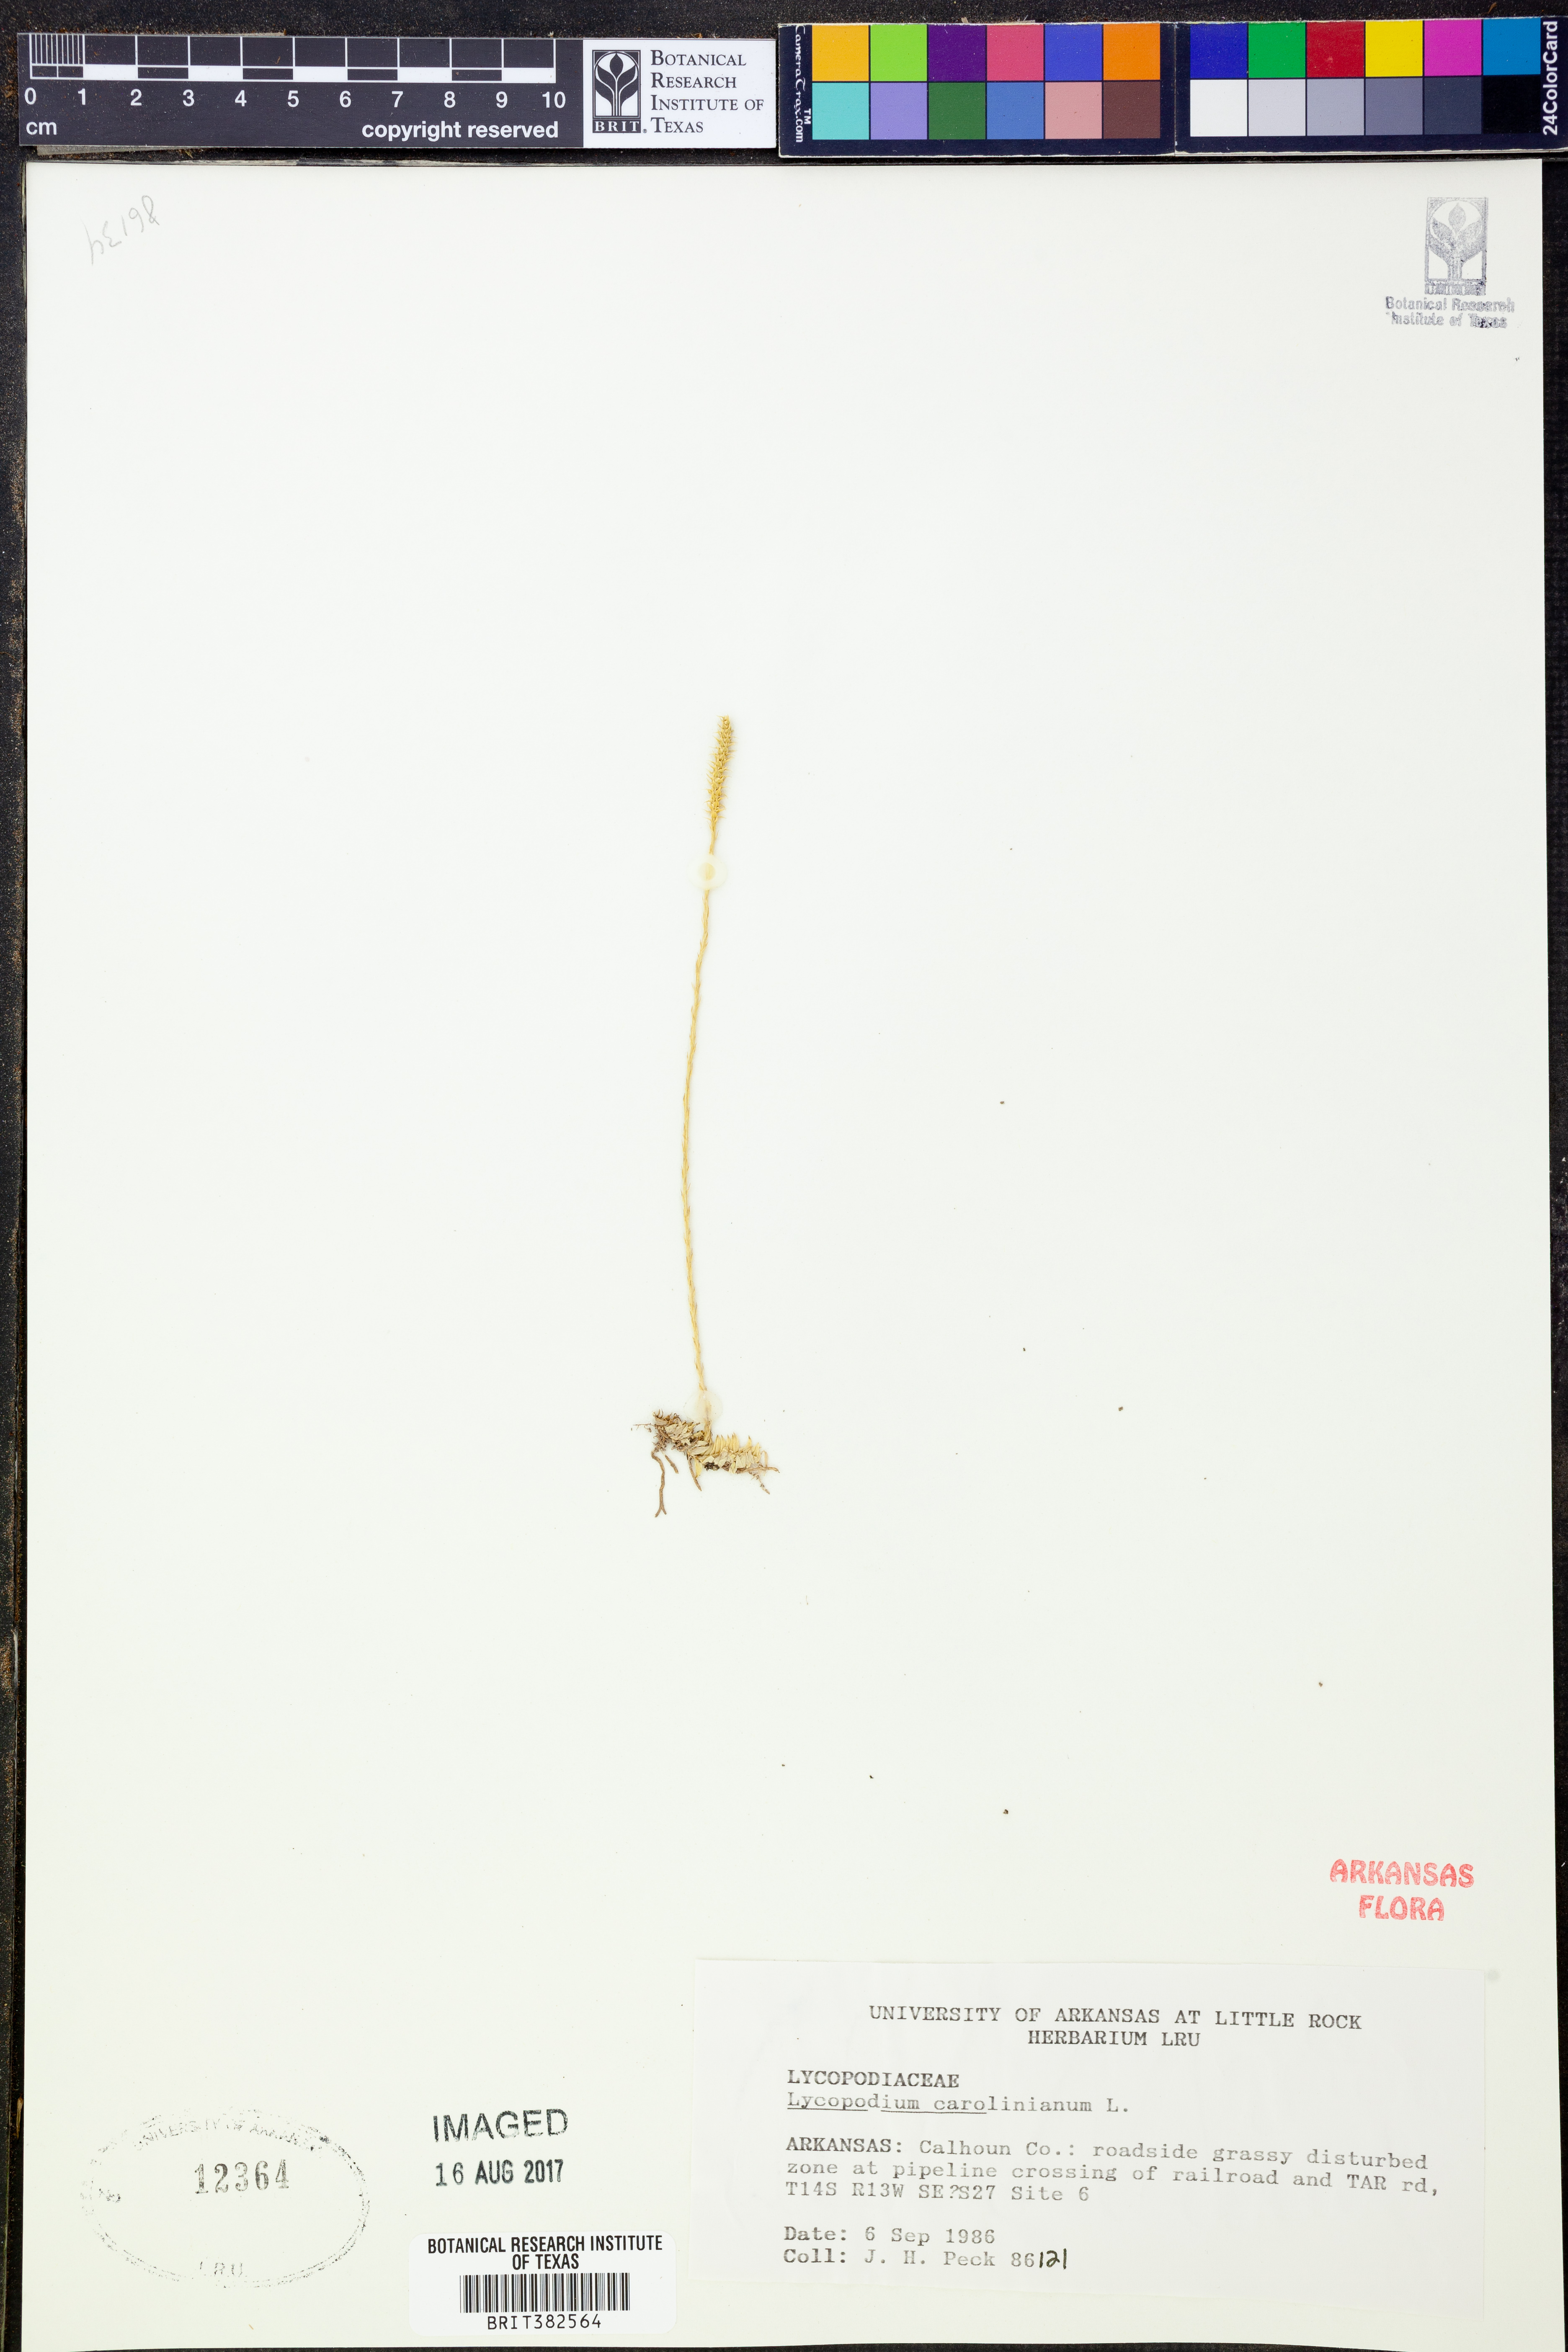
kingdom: Plantae
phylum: Tracheophyta
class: Lycopodiopsida
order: Lycopodiales
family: Lycopodiaceae
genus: Pseudolycopodiella
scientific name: Pseudolycopodiella caroliniana
